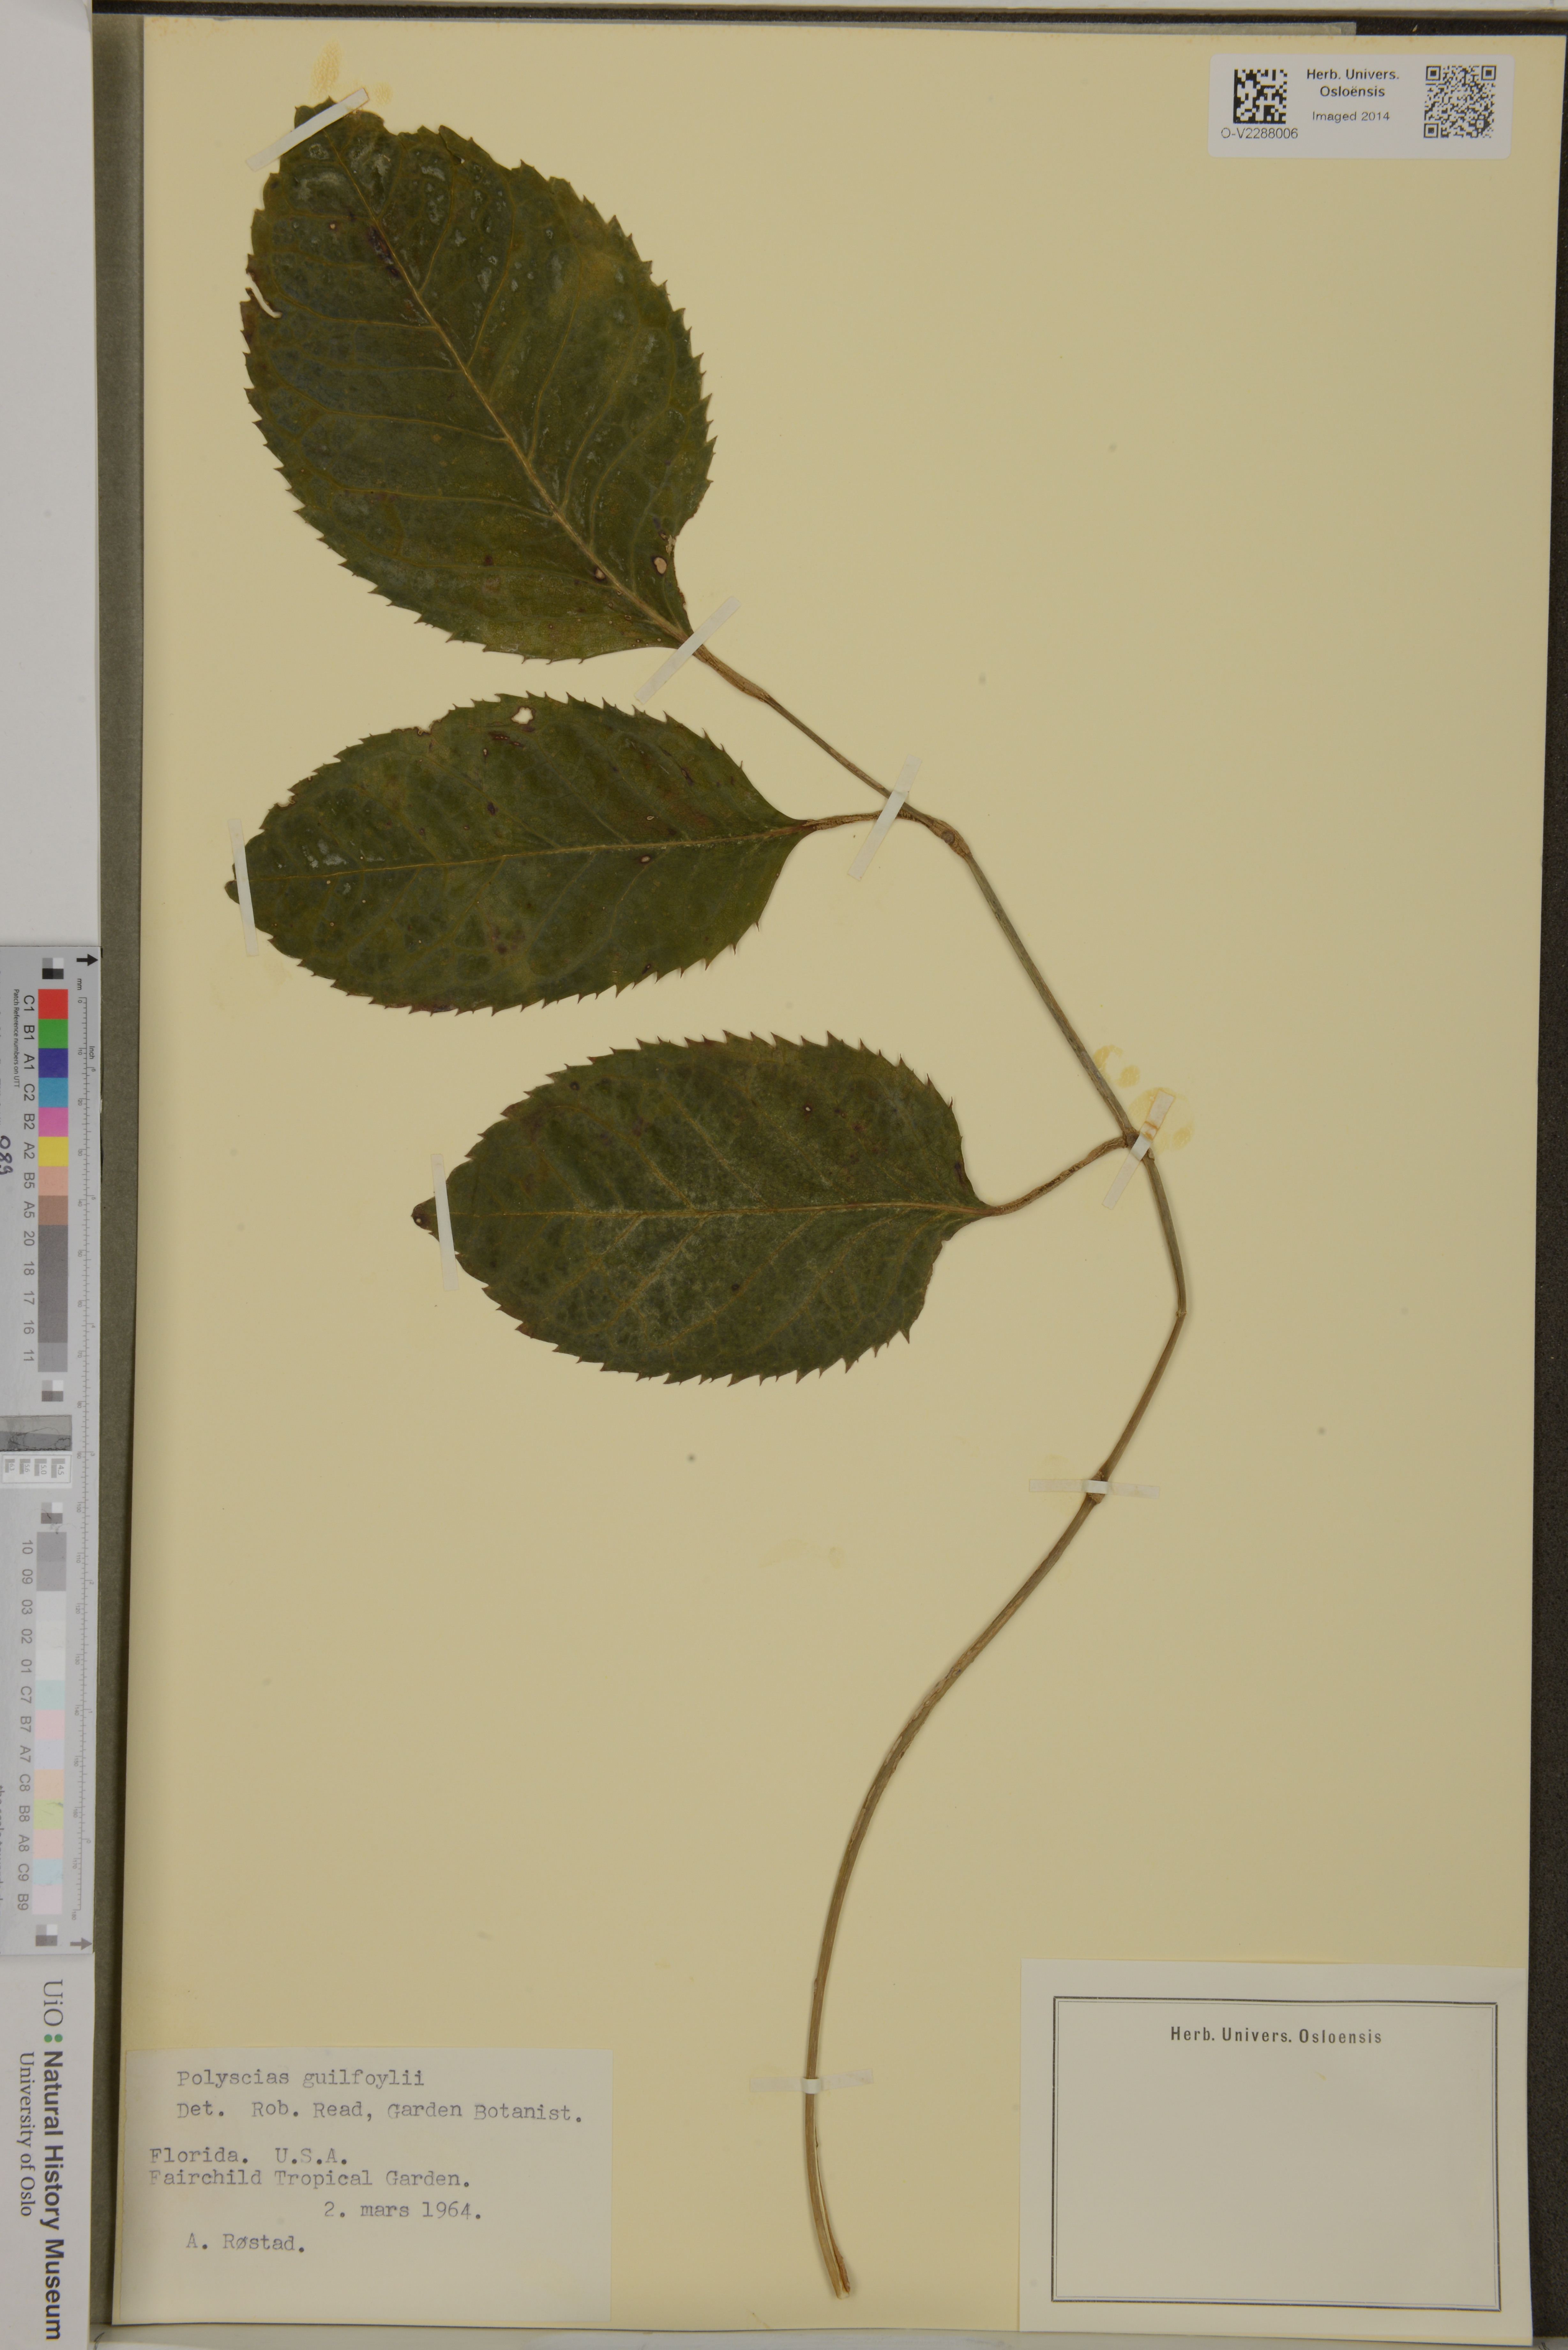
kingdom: Plantae
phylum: Tracheophyta
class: Magnoliopsida
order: Apiales
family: Araliaceae
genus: Polyscias
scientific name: Polyscias guilfoylei
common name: Geranium aralia
